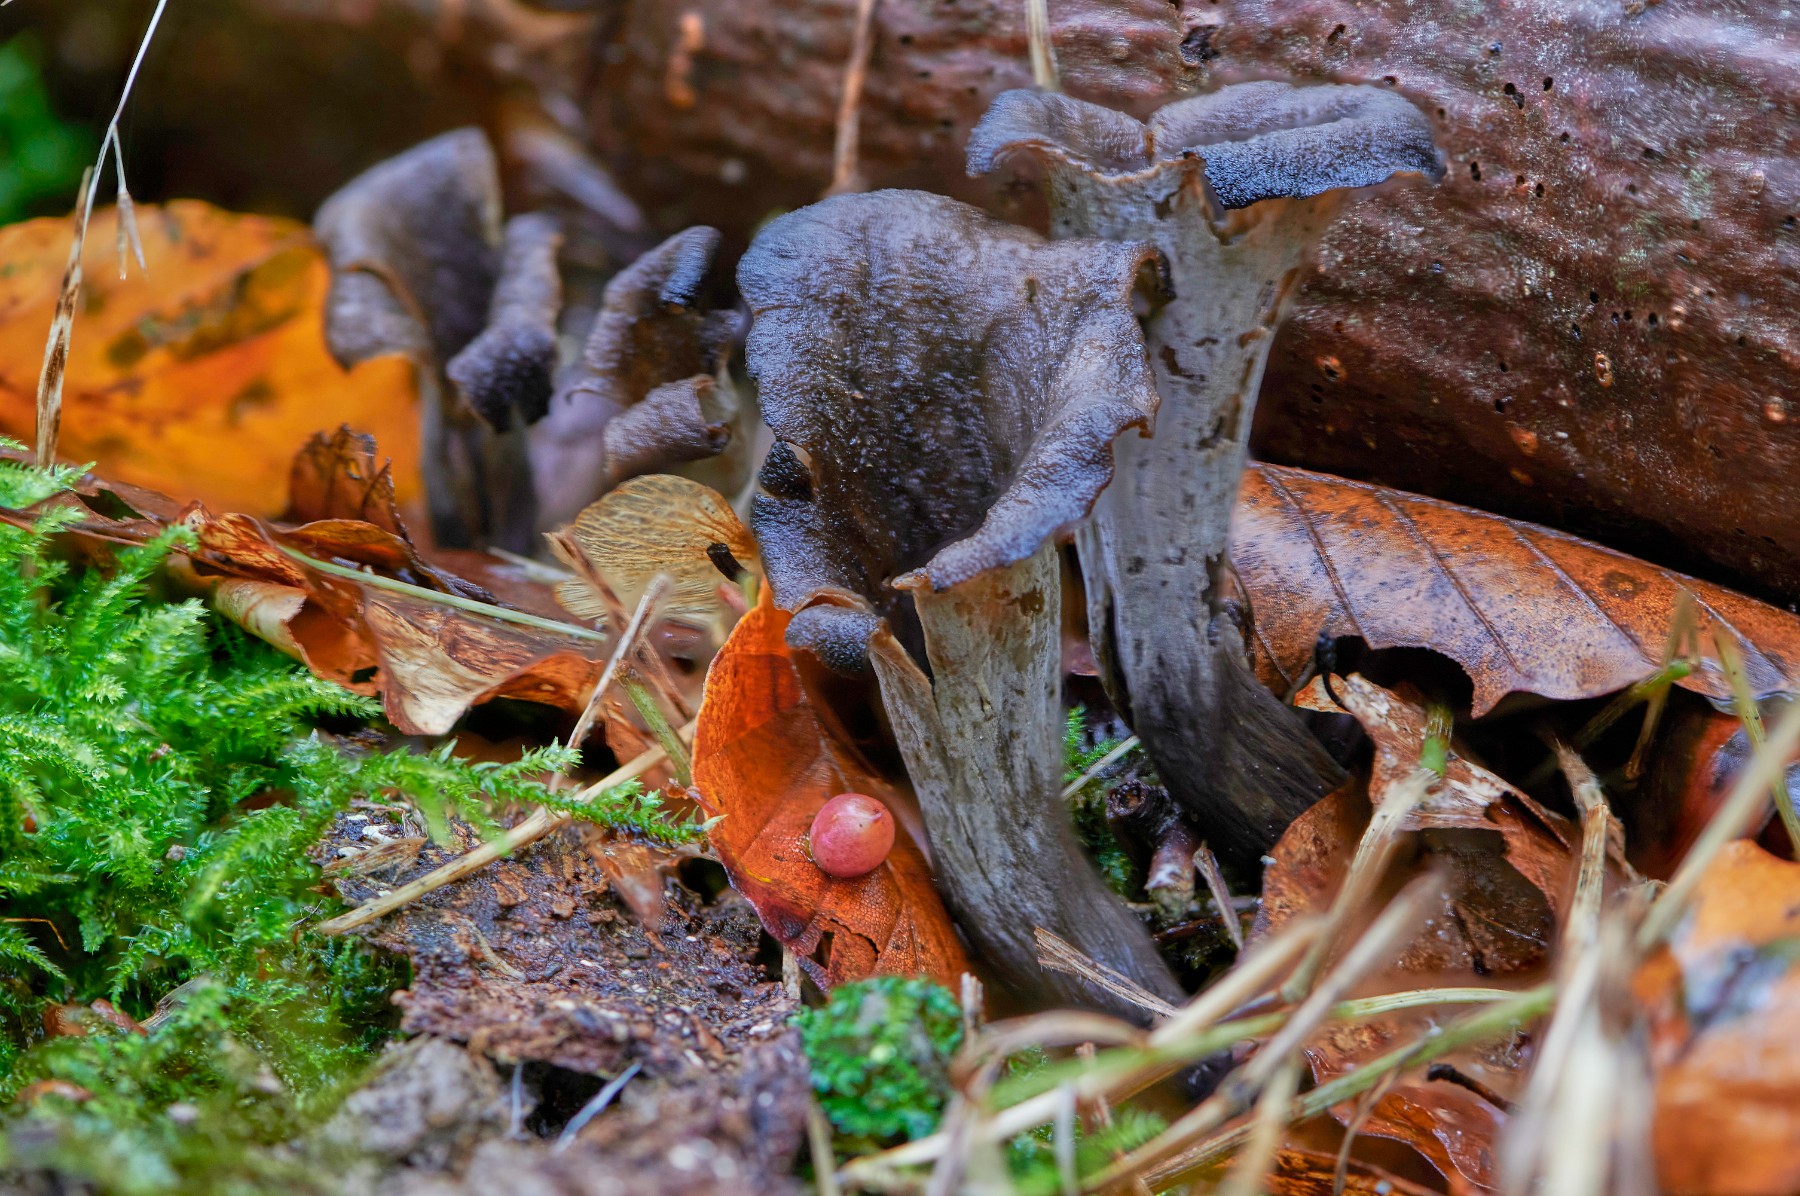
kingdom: Fungi
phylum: Basidiomycota
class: Agaricomycetes
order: Cantharellales
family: Hydnaceae
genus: Craterellus
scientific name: Craterellus cornucopioides
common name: trompetsvamp
